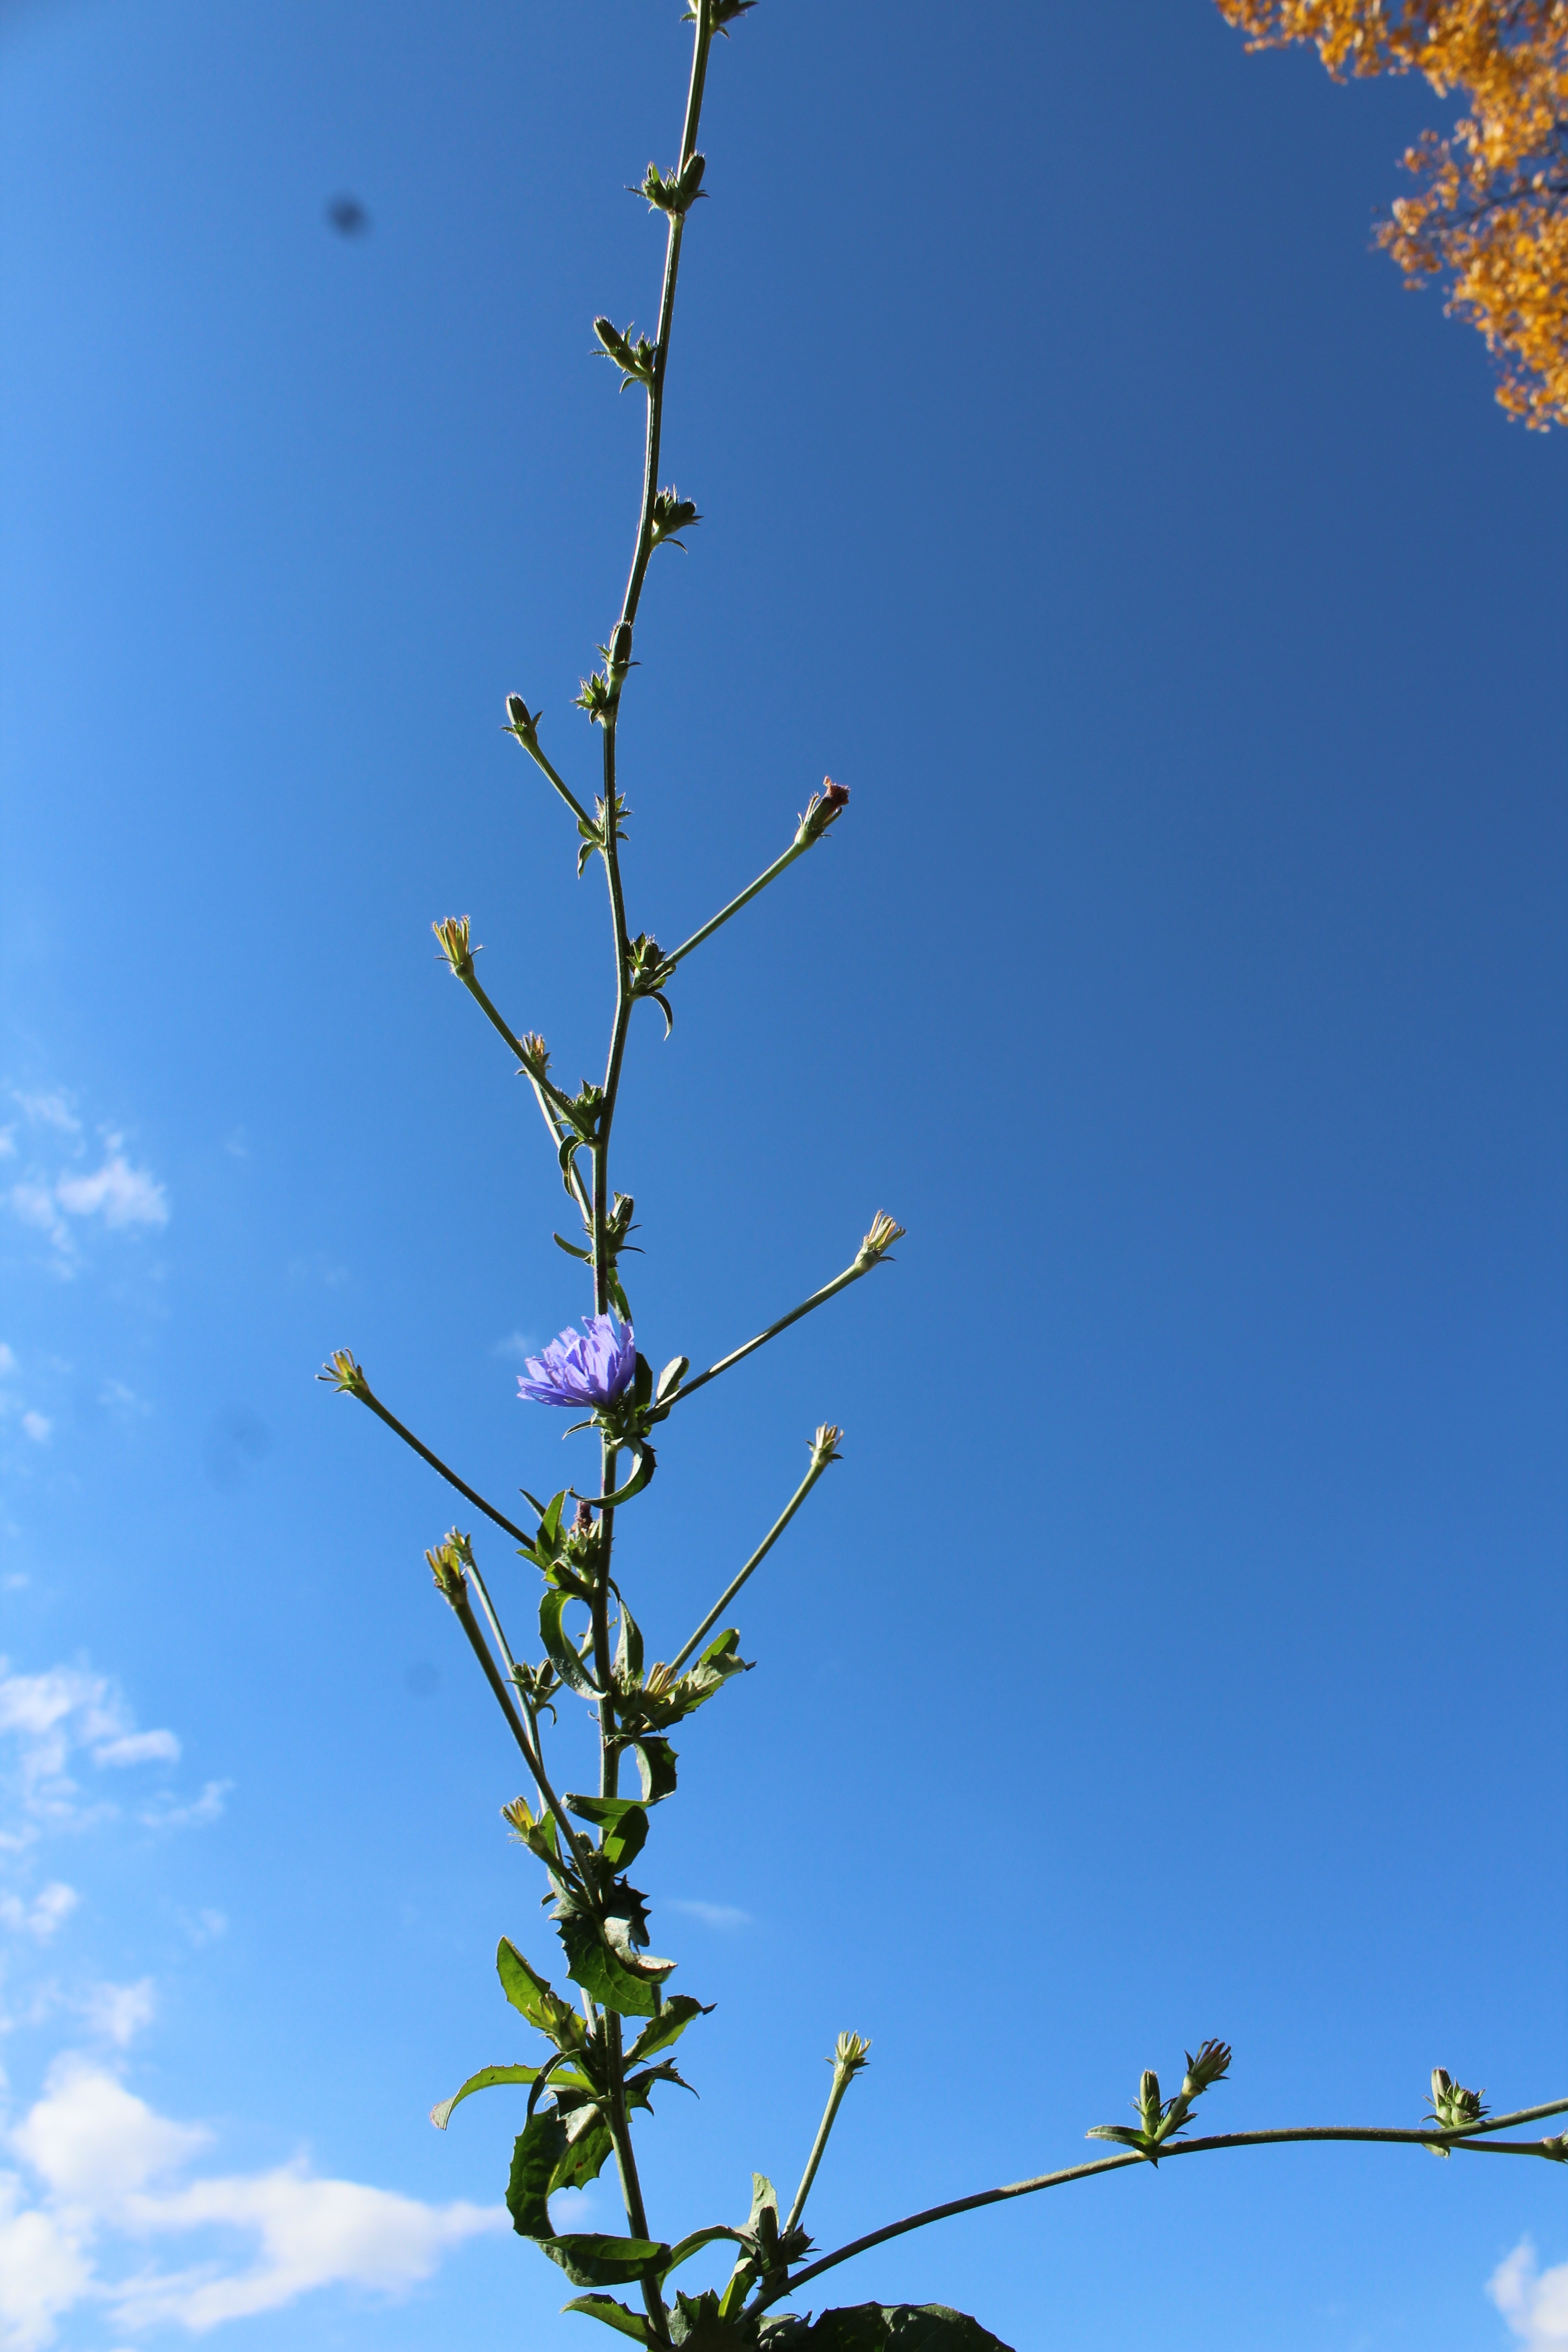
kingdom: Plantae
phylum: Tracheophyta
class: Magnoliopsida
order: Asterales
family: Asteraceae
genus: Cichorium
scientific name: Cichorium intybus
